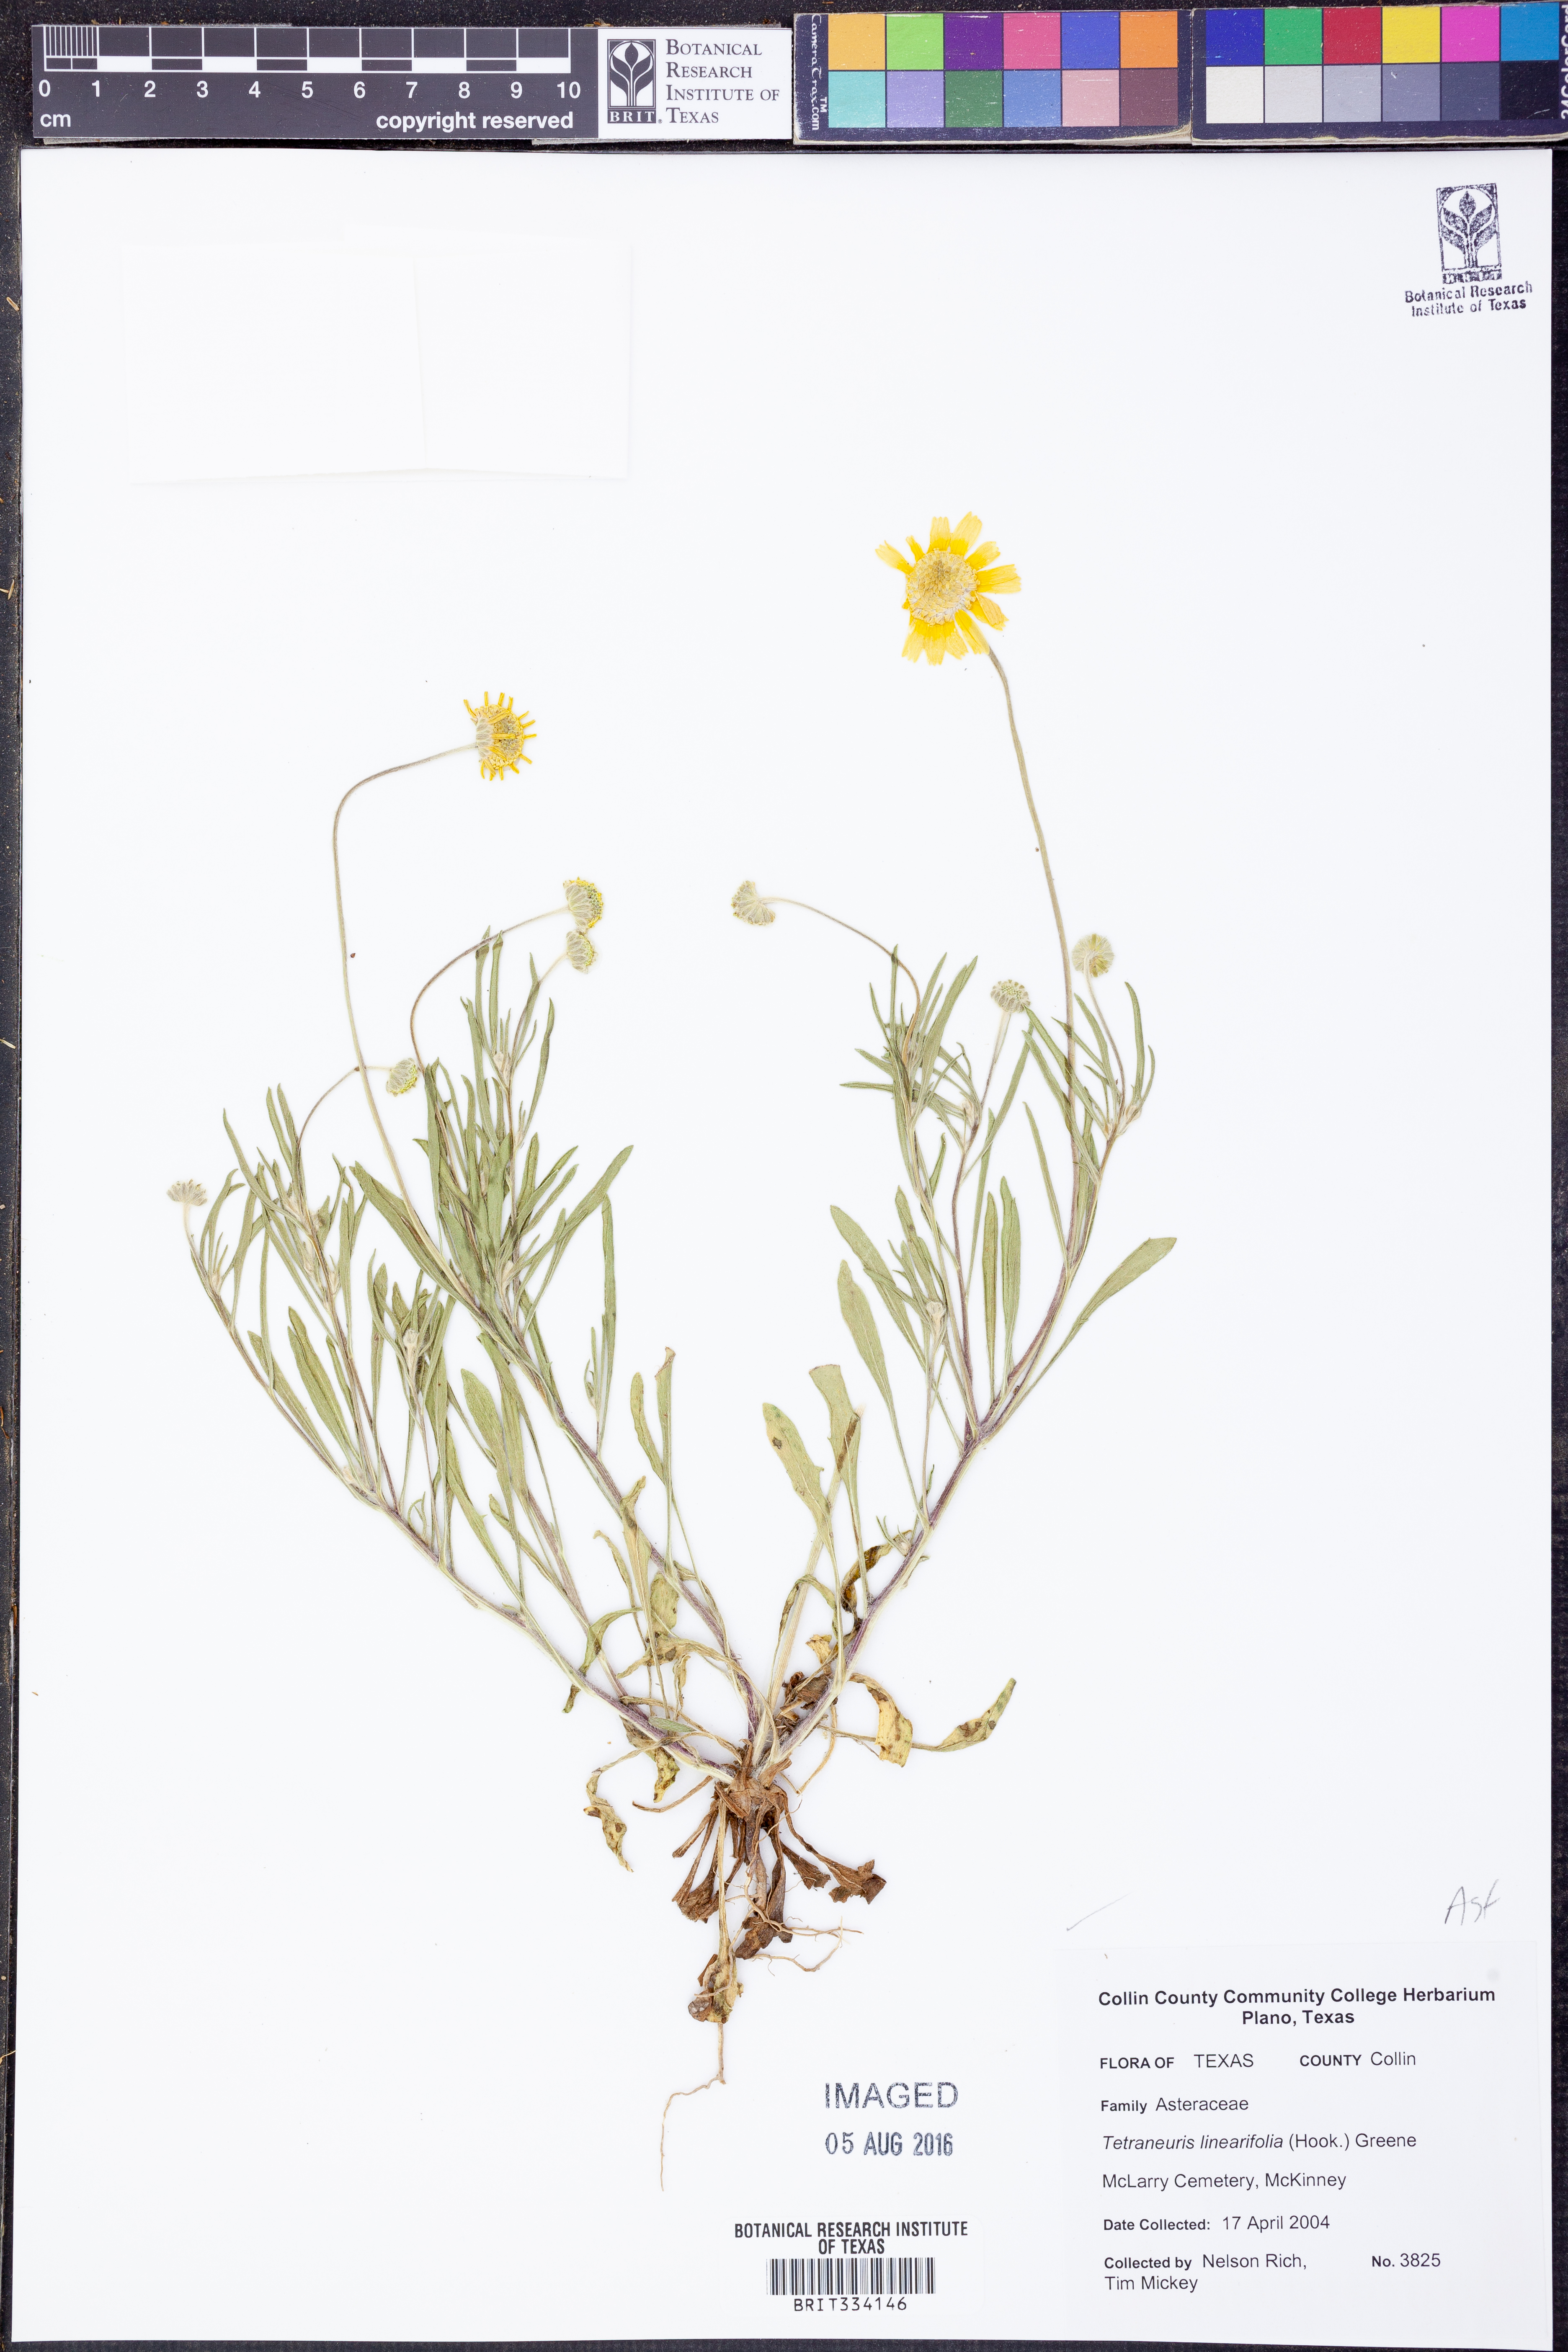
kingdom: Plantae
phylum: Tracheophyta
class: Magnoliopsida
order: Asterales
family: Asteraceae
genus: Tetraneuris
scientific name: Tetraneuris linearifolia
